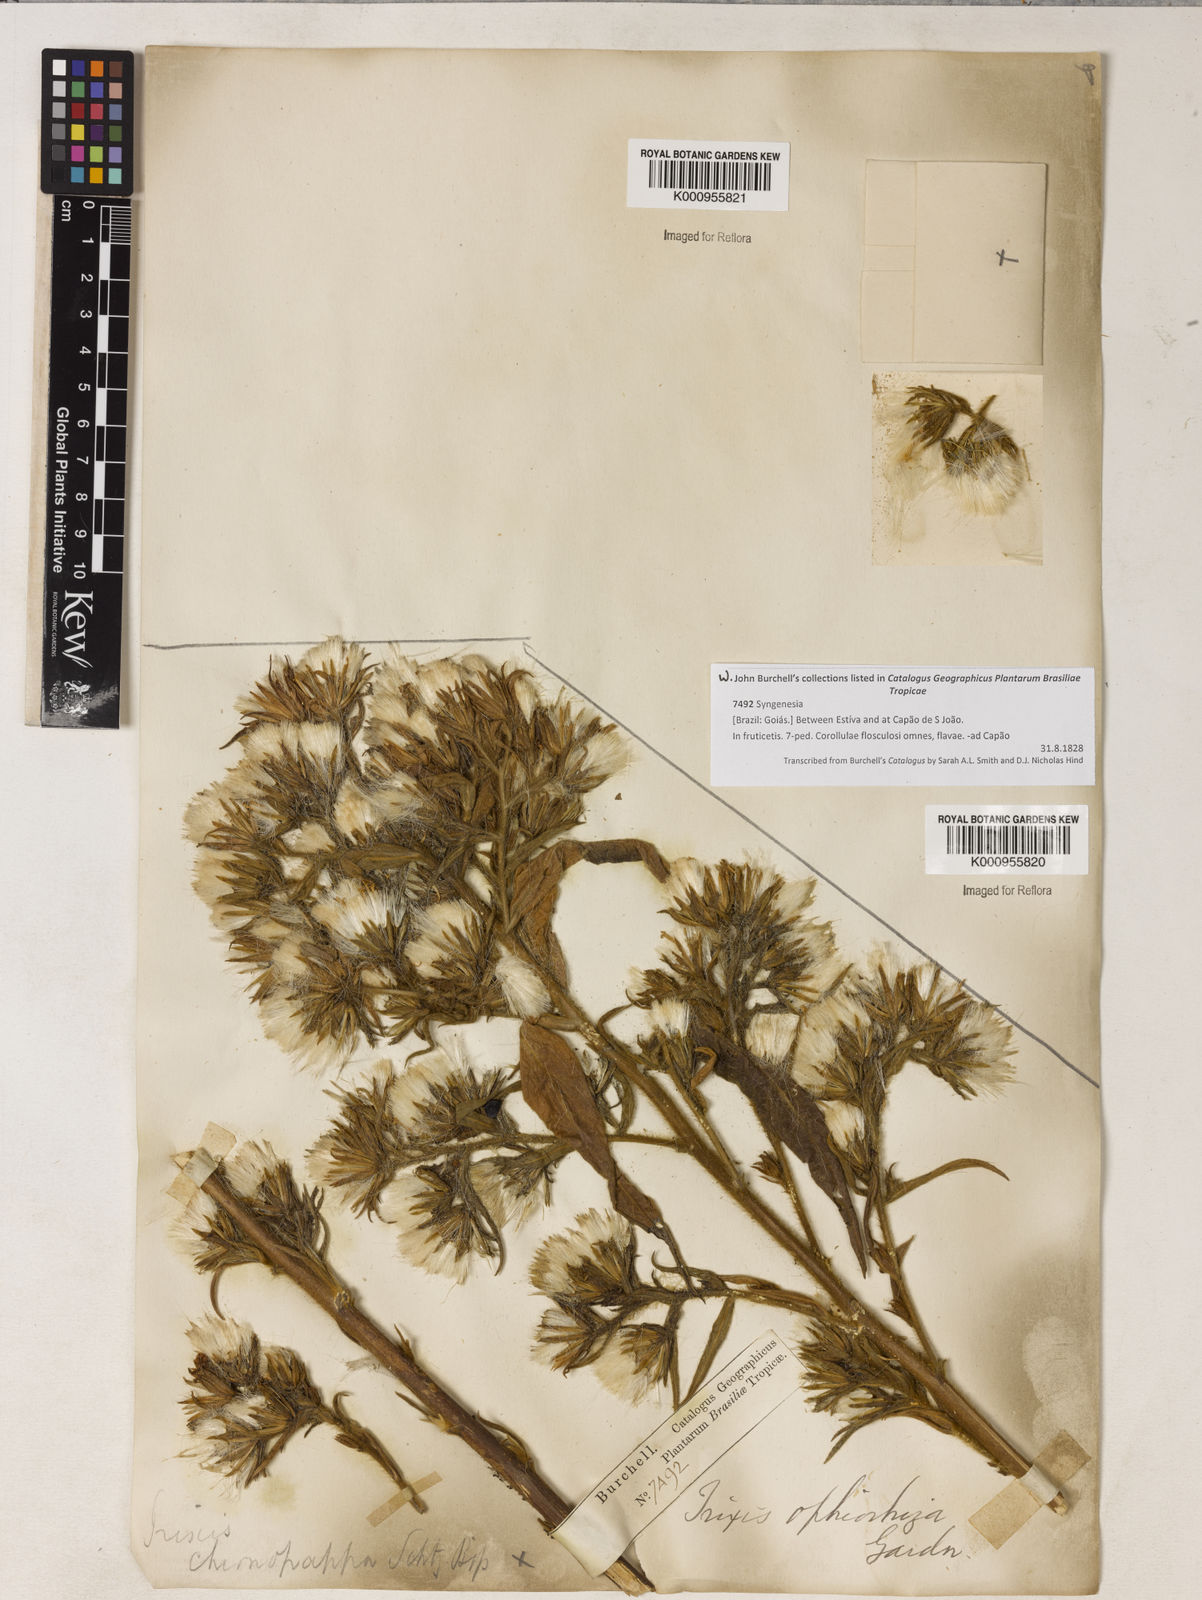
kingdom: Plantae
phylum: Tracheophyta
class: Magnoliopsida
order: Asterales
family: Asteraceae
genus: Trixis
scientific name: Trixis ophiorhiza
